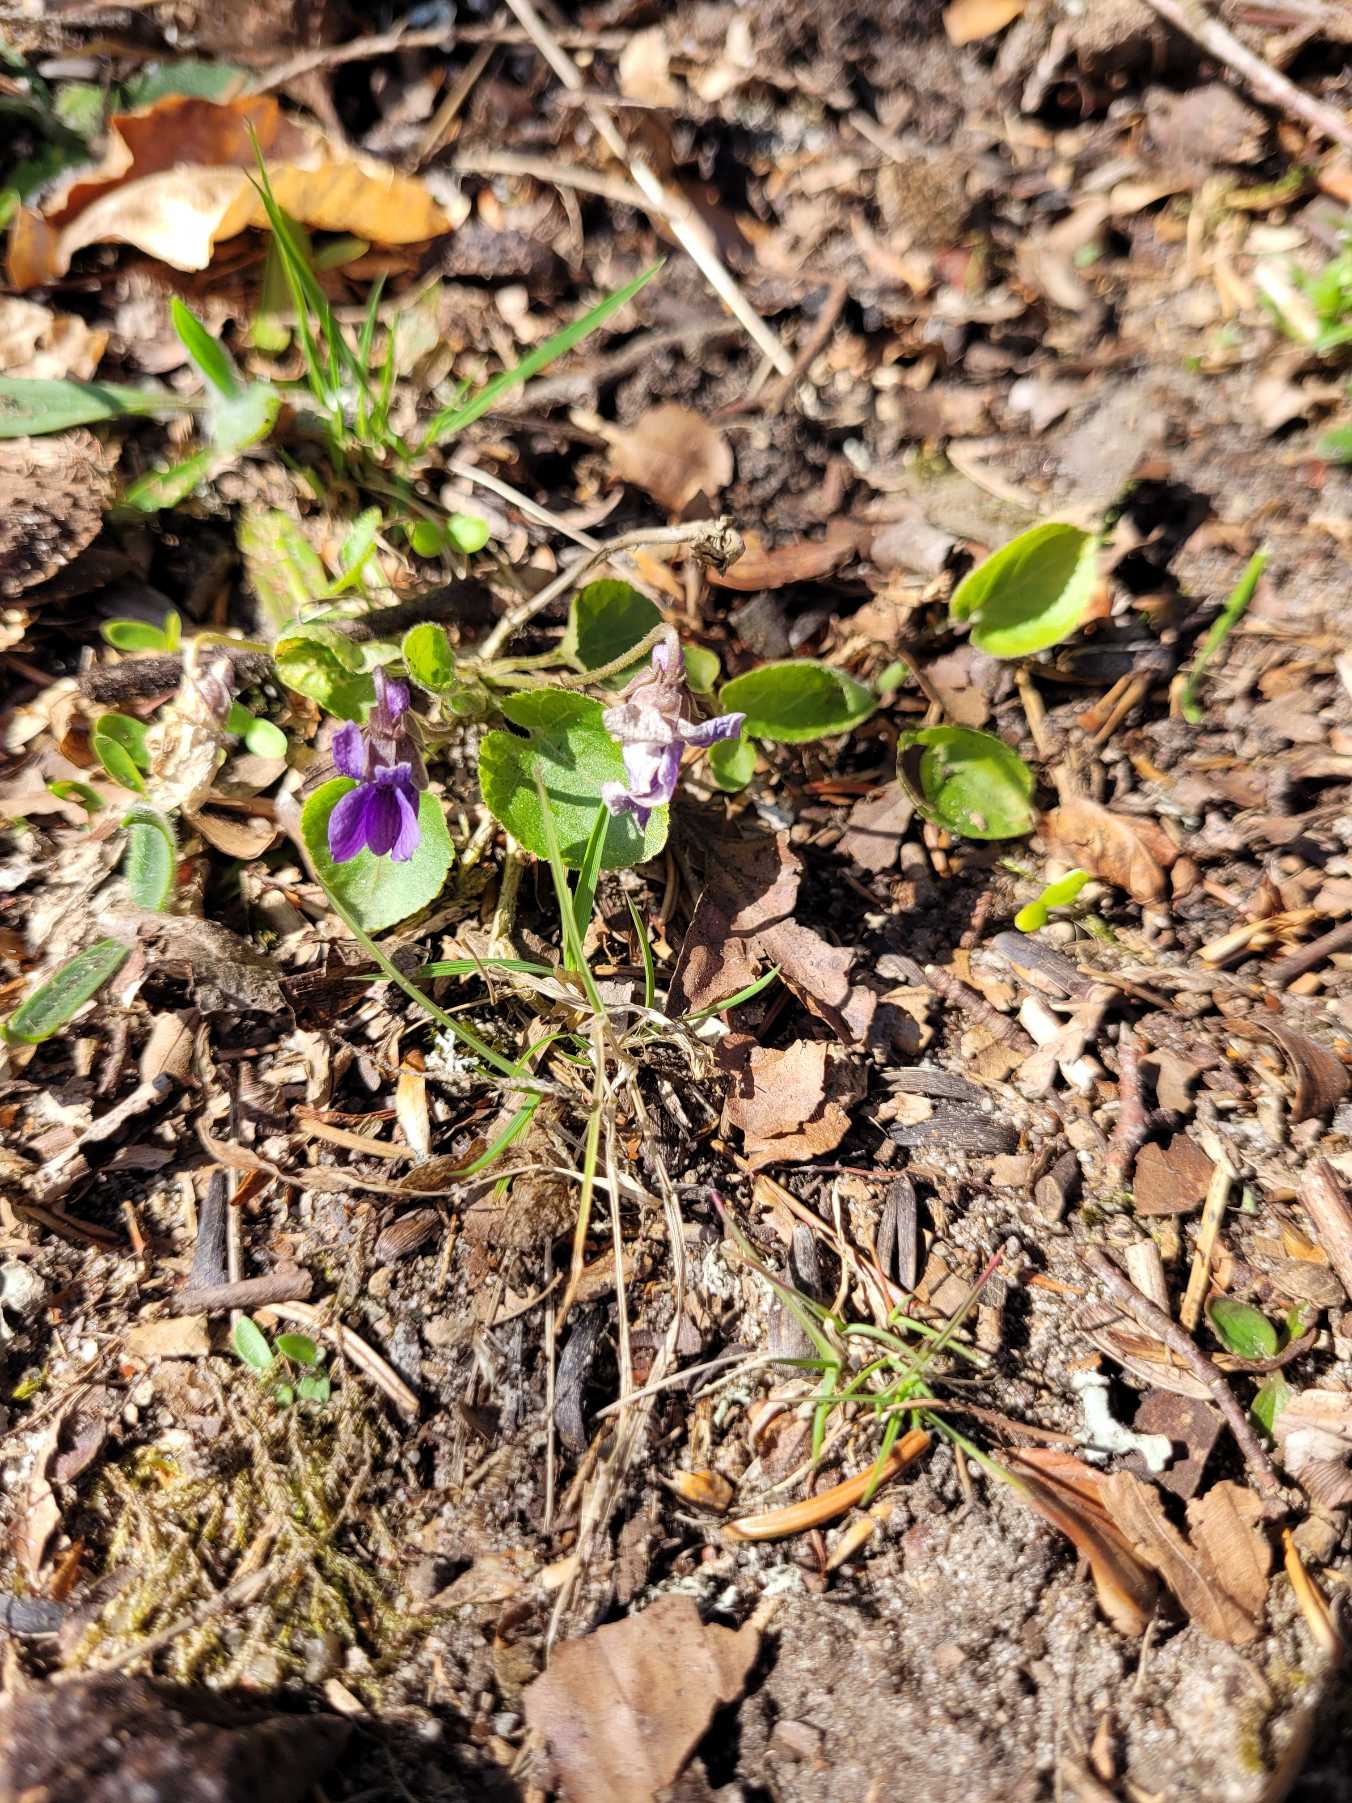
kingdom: Plantae
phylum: Tracheophyta
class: Magnoliopsida
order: Malpighiales
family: Violaceae
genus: Viola
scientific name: Viola odorata
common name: Marts-viol
